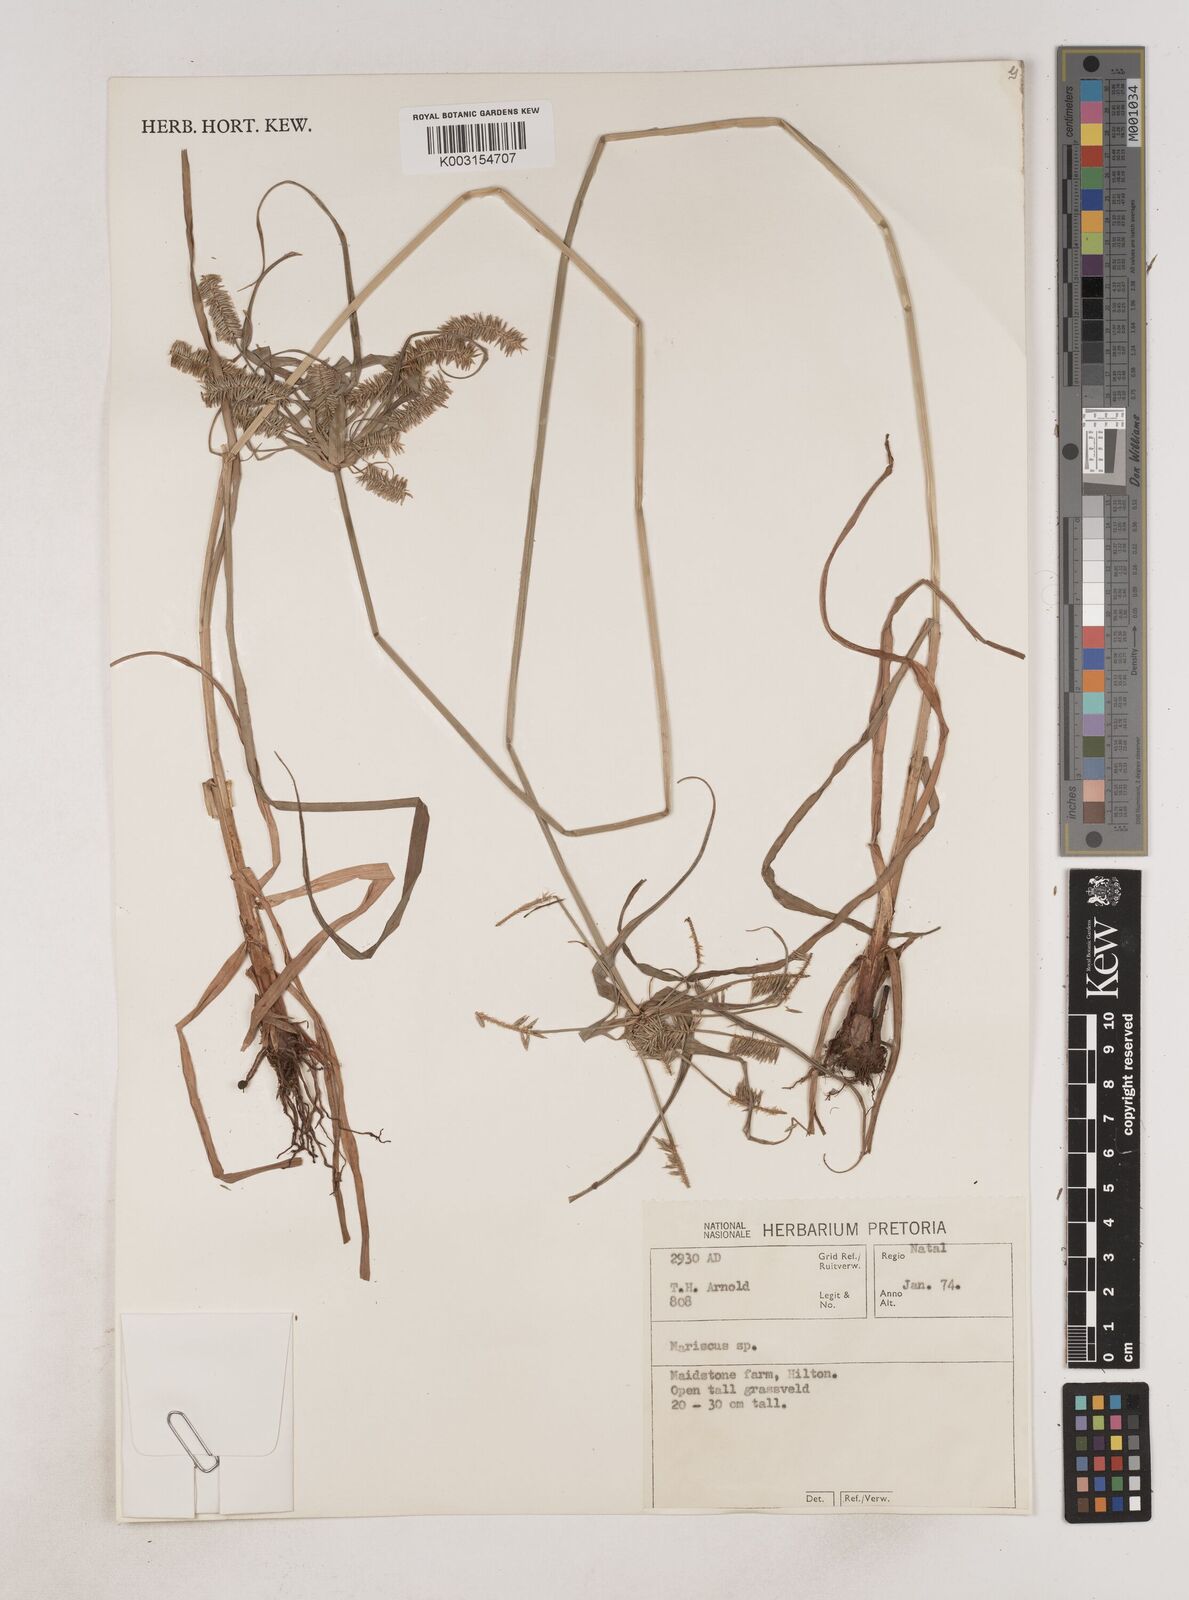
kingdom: Plantae
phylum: Tracheophyta
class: Liliopsida
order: Poales
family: Cyperaceae
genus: Cyperus
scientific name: Cyperus
